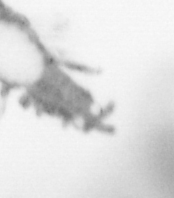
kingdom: Animalia
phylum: Annelida
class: Polychaeta
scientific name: Polychaeta
